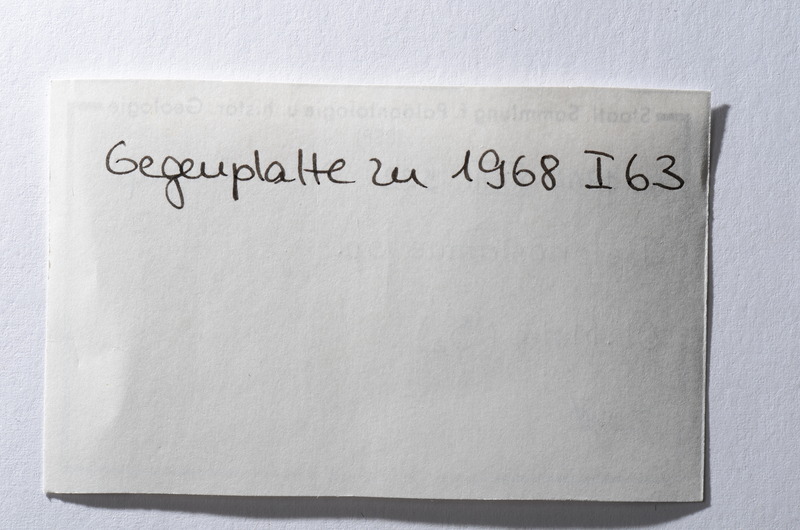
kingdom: Animalia
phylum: Chordata
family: Aspidorhynchidae
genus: Belonostomus
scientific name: Belonostomus
